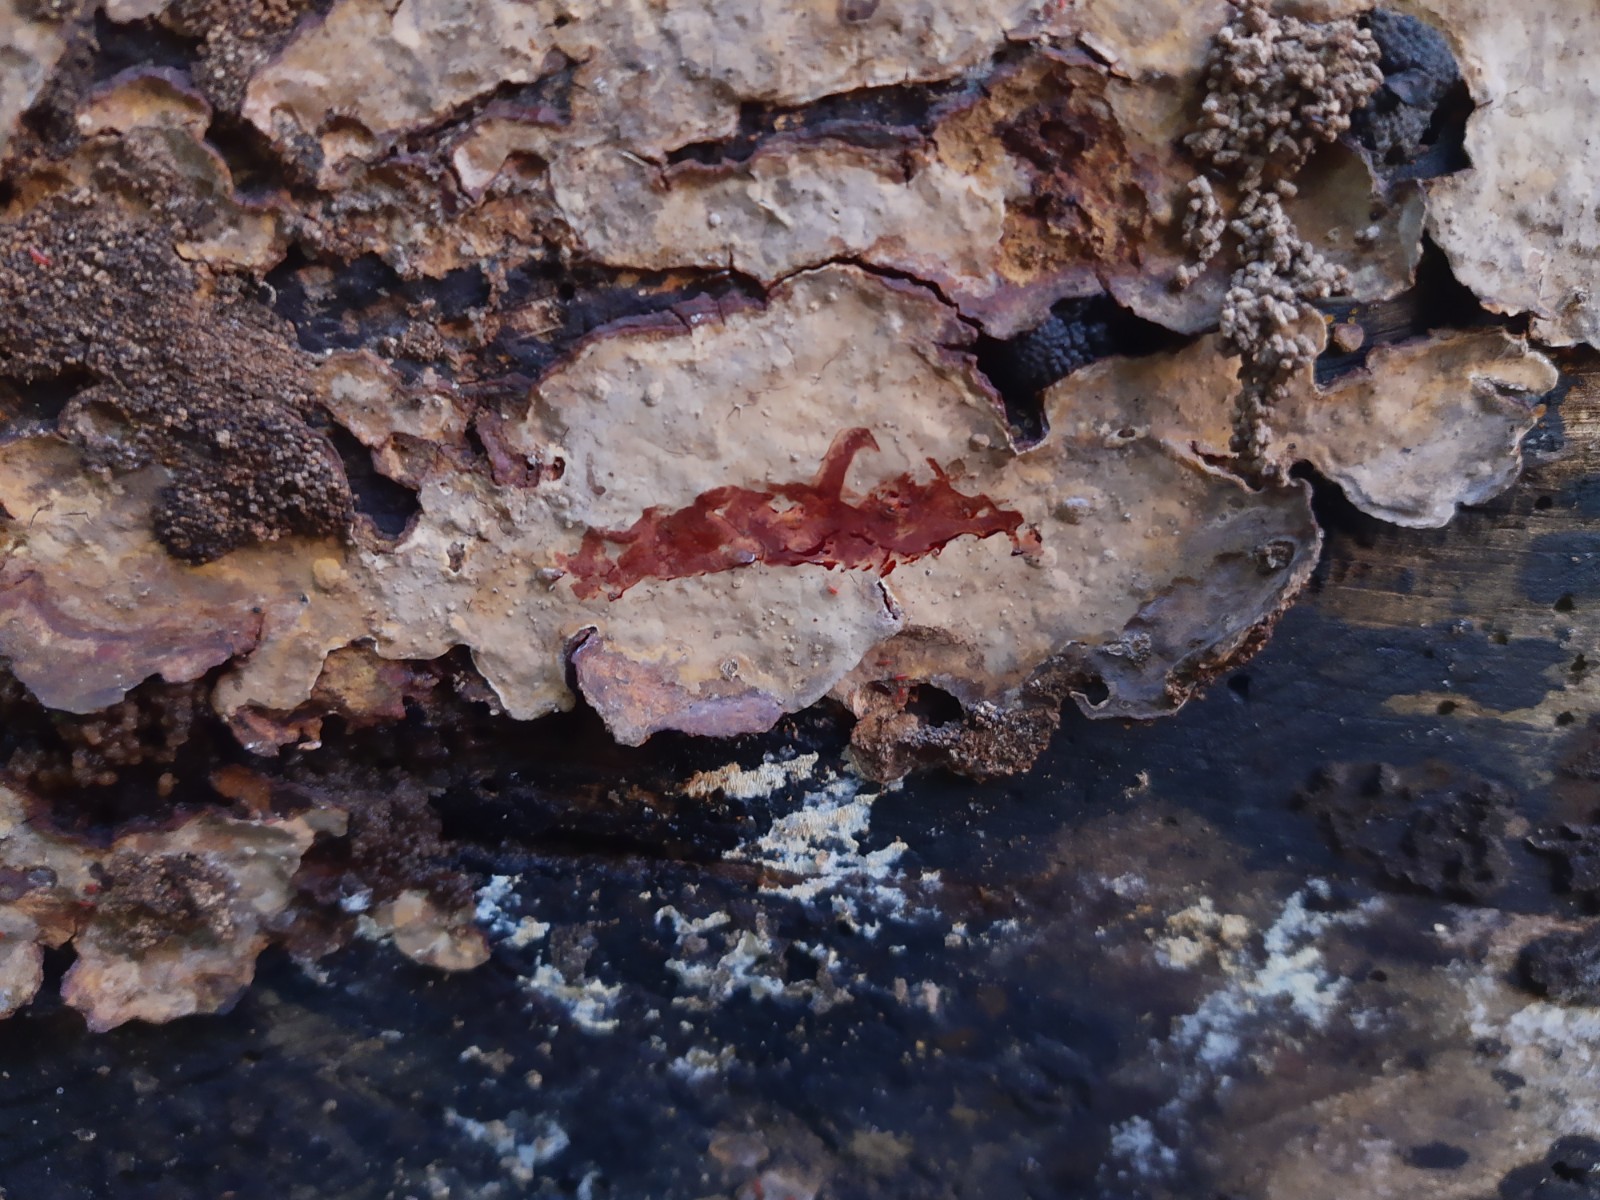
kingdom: Fungi
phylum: Basidiomycota
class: Agaricomycetes
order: Russulales
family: Stereaceae
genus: Stereum
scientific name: Stereum rugosum
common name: rynket lædersvamp
